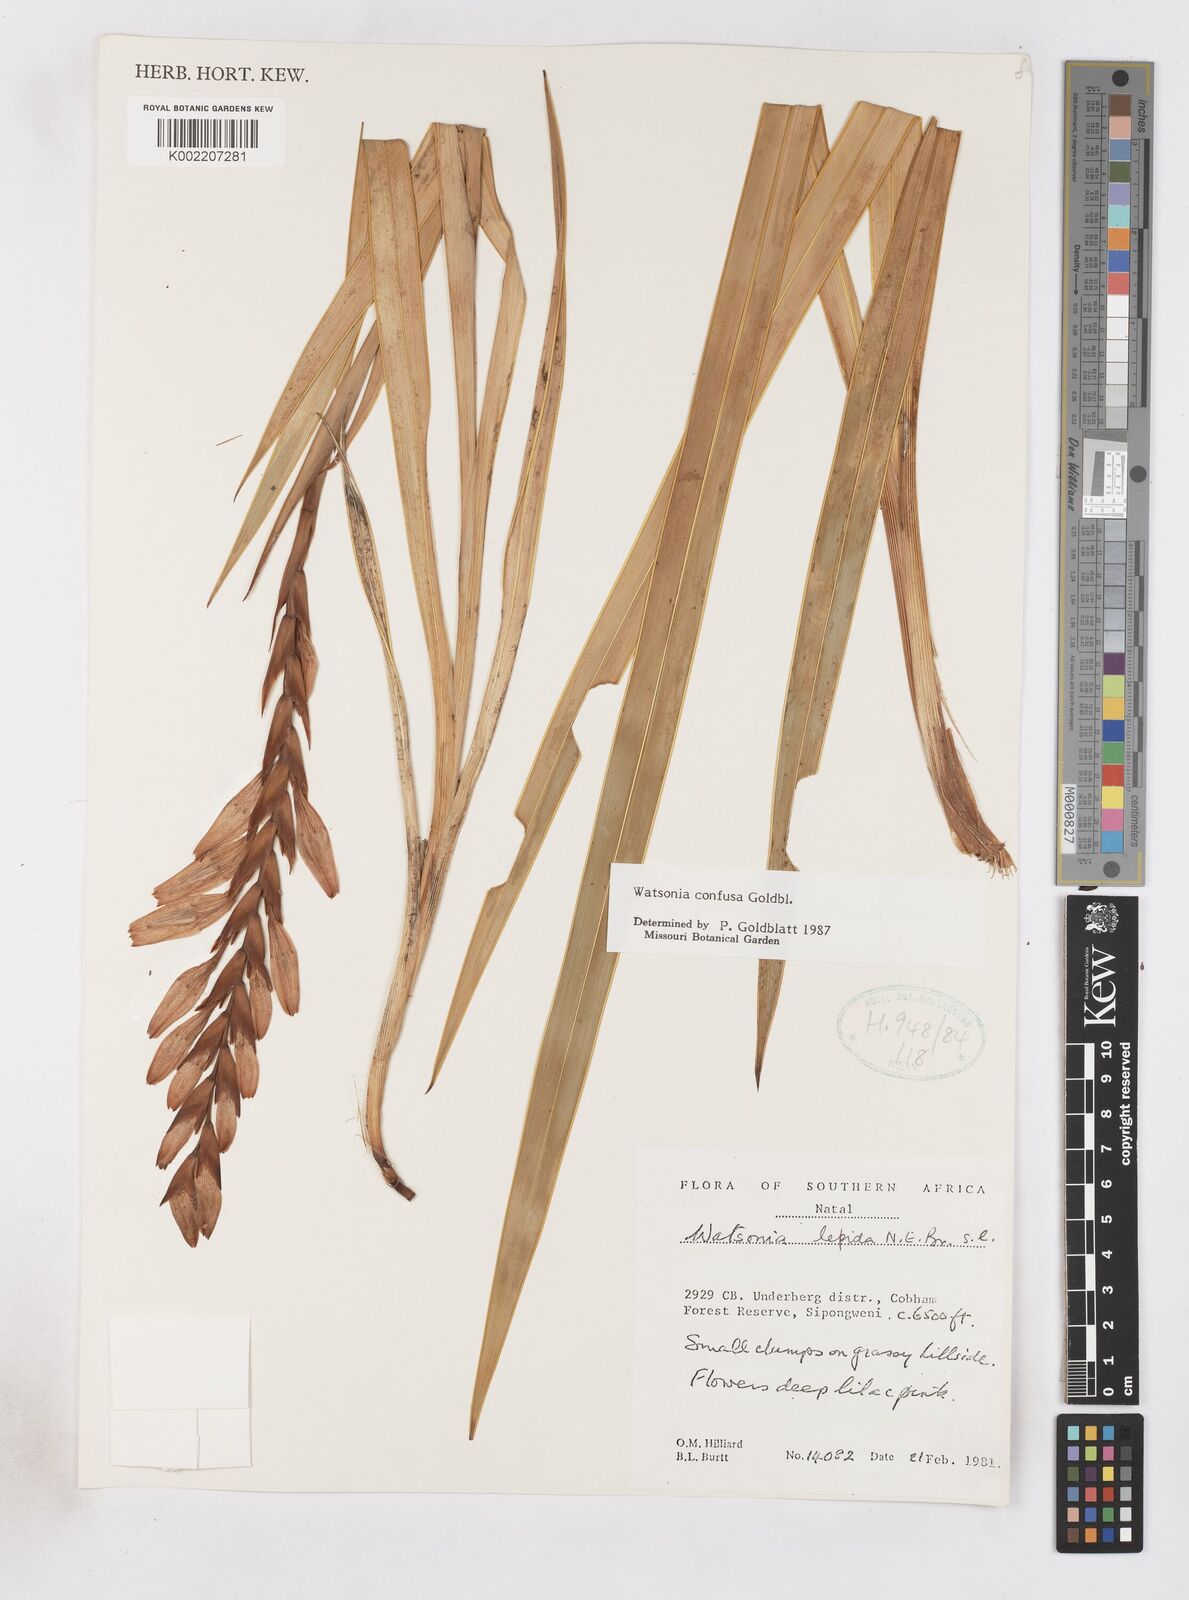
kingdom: Plantae
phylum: Tracheophyta
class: Liliopsida
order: Asparagales
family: Iridaceae
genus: Watsonia
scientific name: Watsonia confusa
